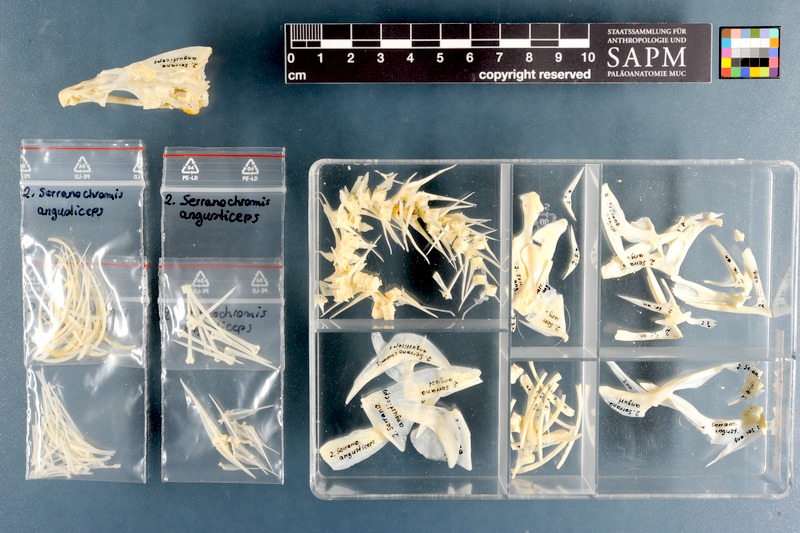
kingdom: Animalia
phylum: Chordata
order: Perciformes
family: Cichlidae
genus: Serranochromis
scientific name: Serranochromis angusticeps
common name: Thinface largemouth
